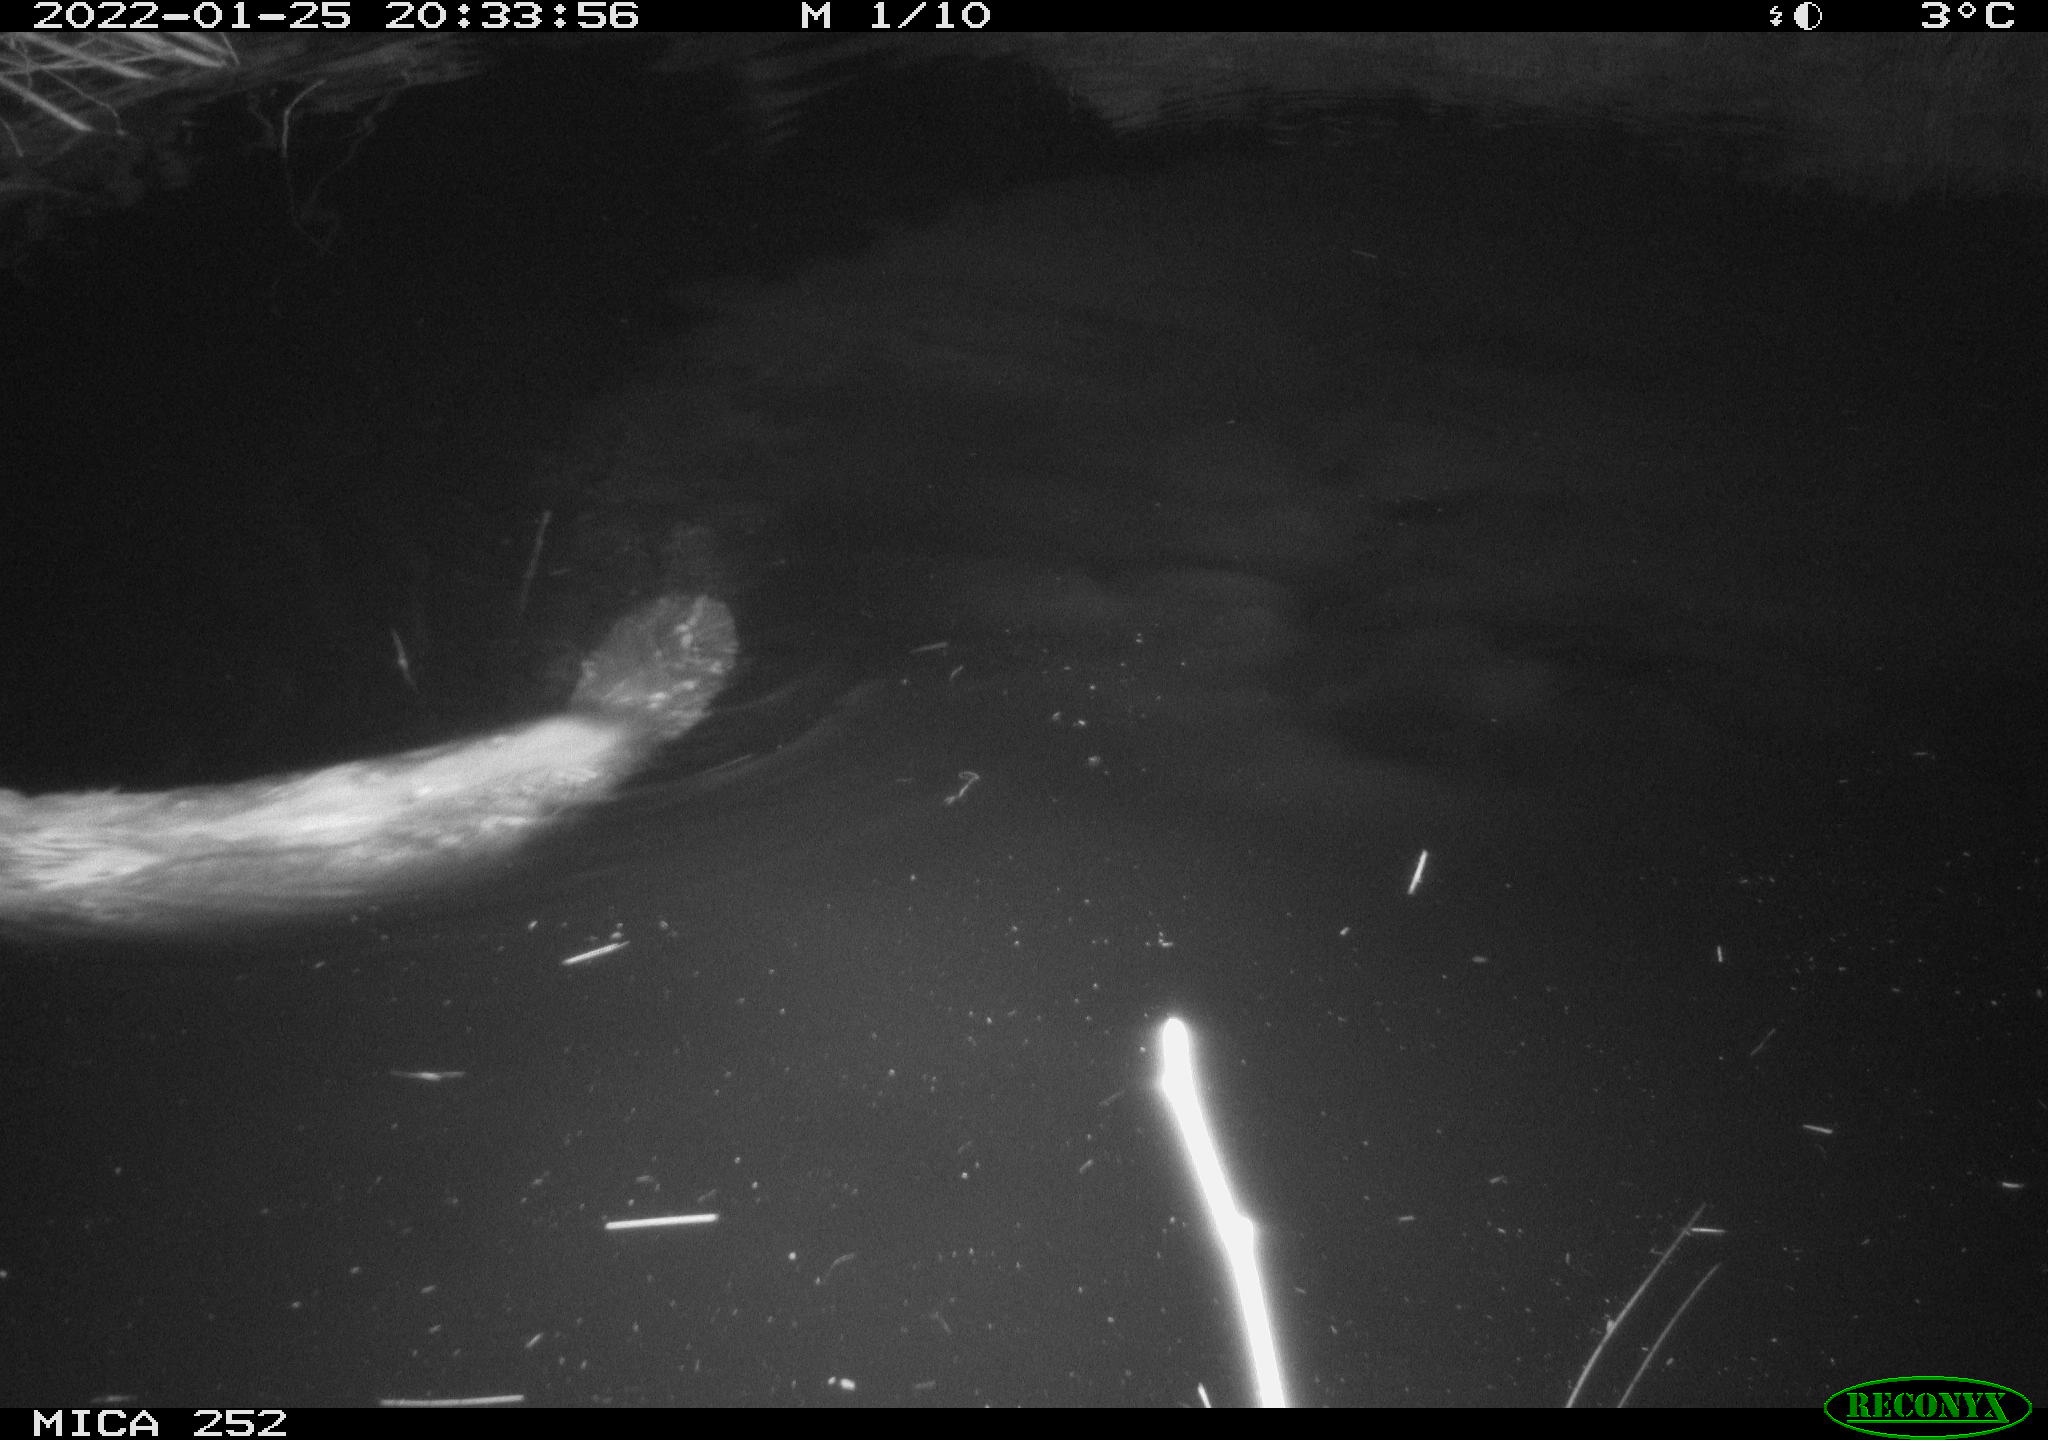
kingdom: Animalia
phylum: Chordata
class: Mammalia
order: Rodentia
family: Castoridae
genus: Castor
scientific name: Castor fiber
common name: Eurasian beaver
